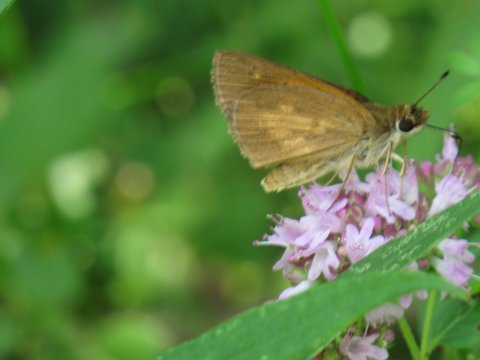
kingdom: Animalia
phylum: Arthropoda
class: Insecta
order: Lepidoptera
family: Hesperiidae
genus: Poanes
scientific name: Poanes viator
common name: Broad-winged Skipper
